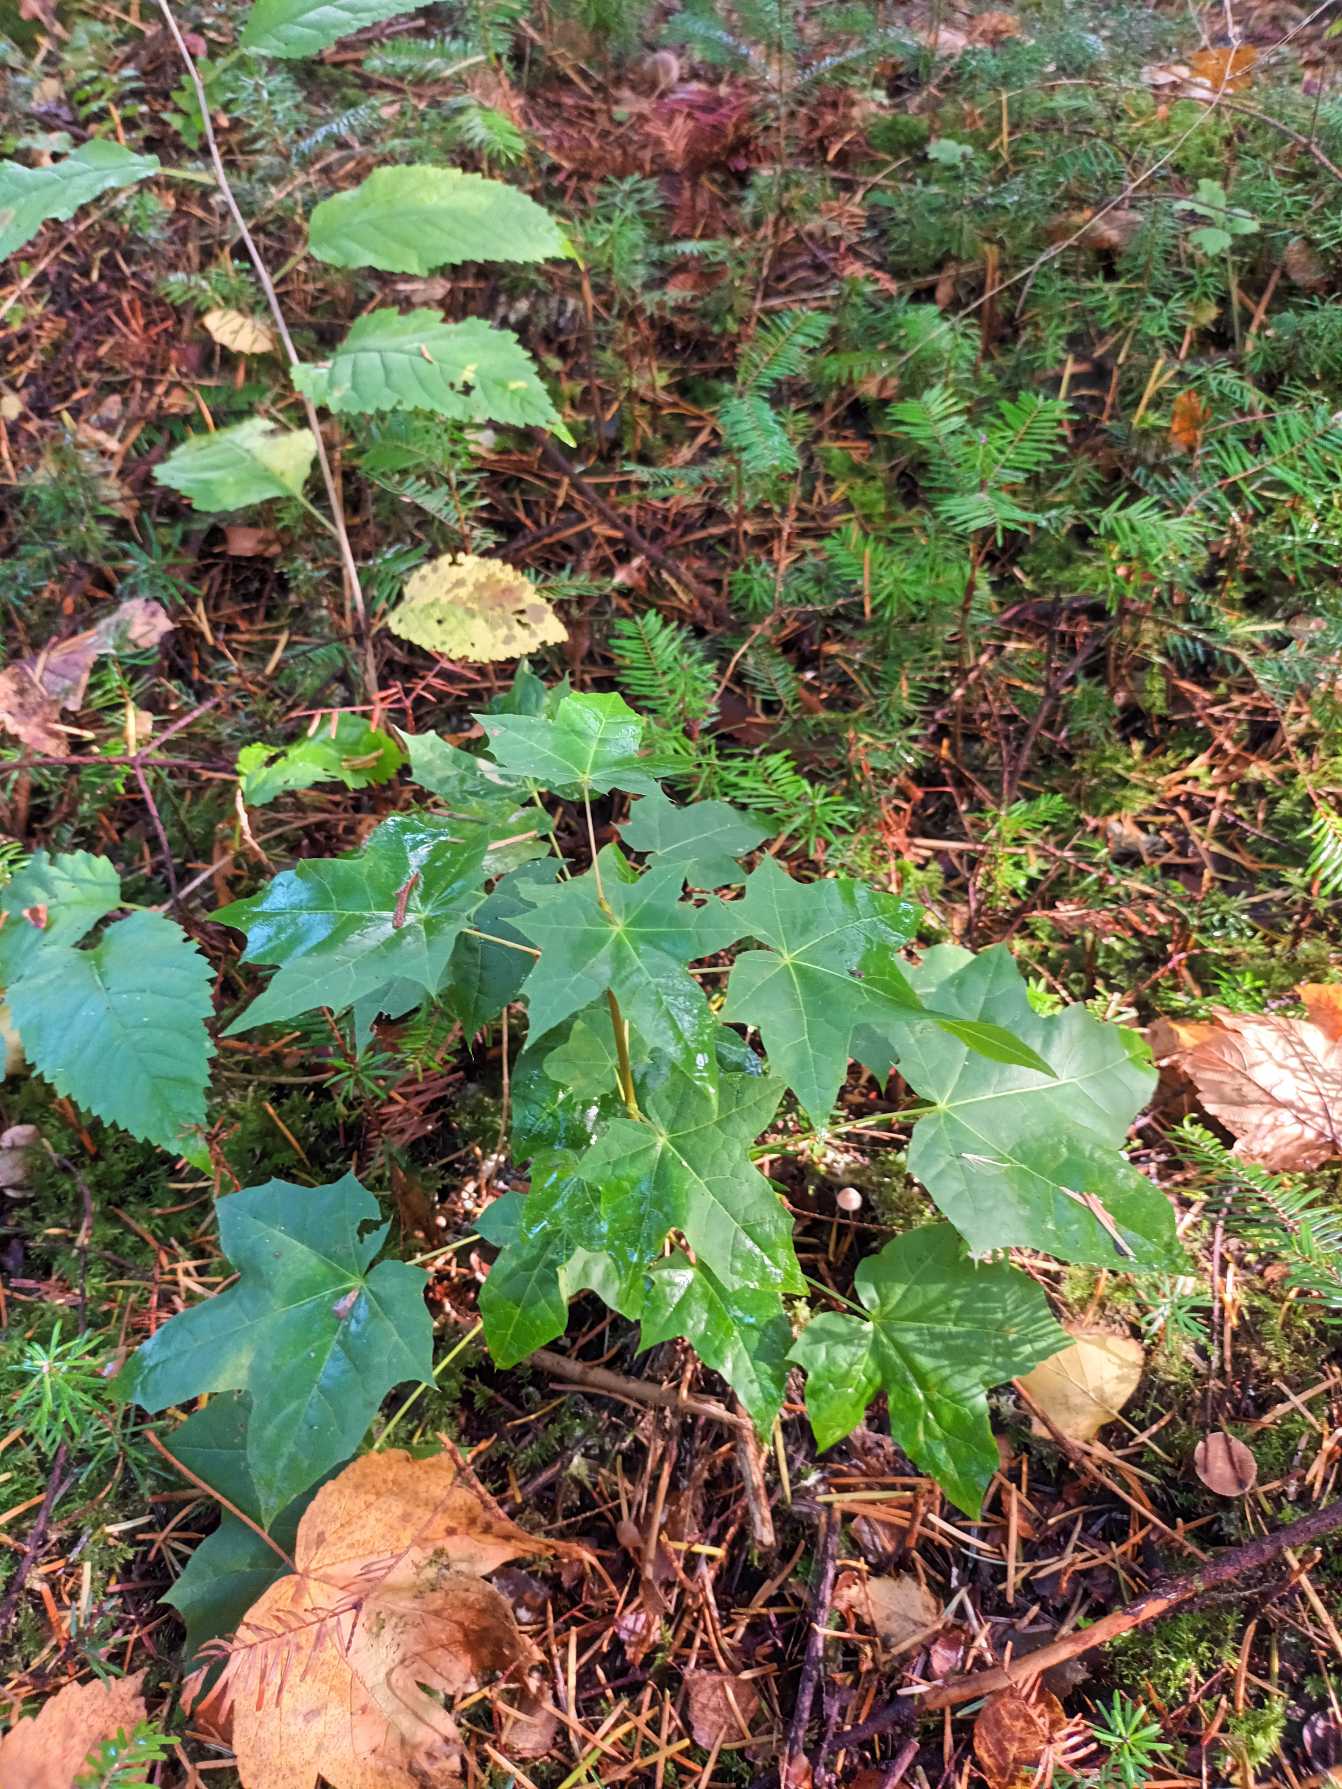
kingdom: Plantae
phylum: Tracheophyta
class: Magnoliopsida
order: Sapindales
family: Sapindaceae
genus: Acer
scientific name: Acer platanoides
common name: Spids-løn
